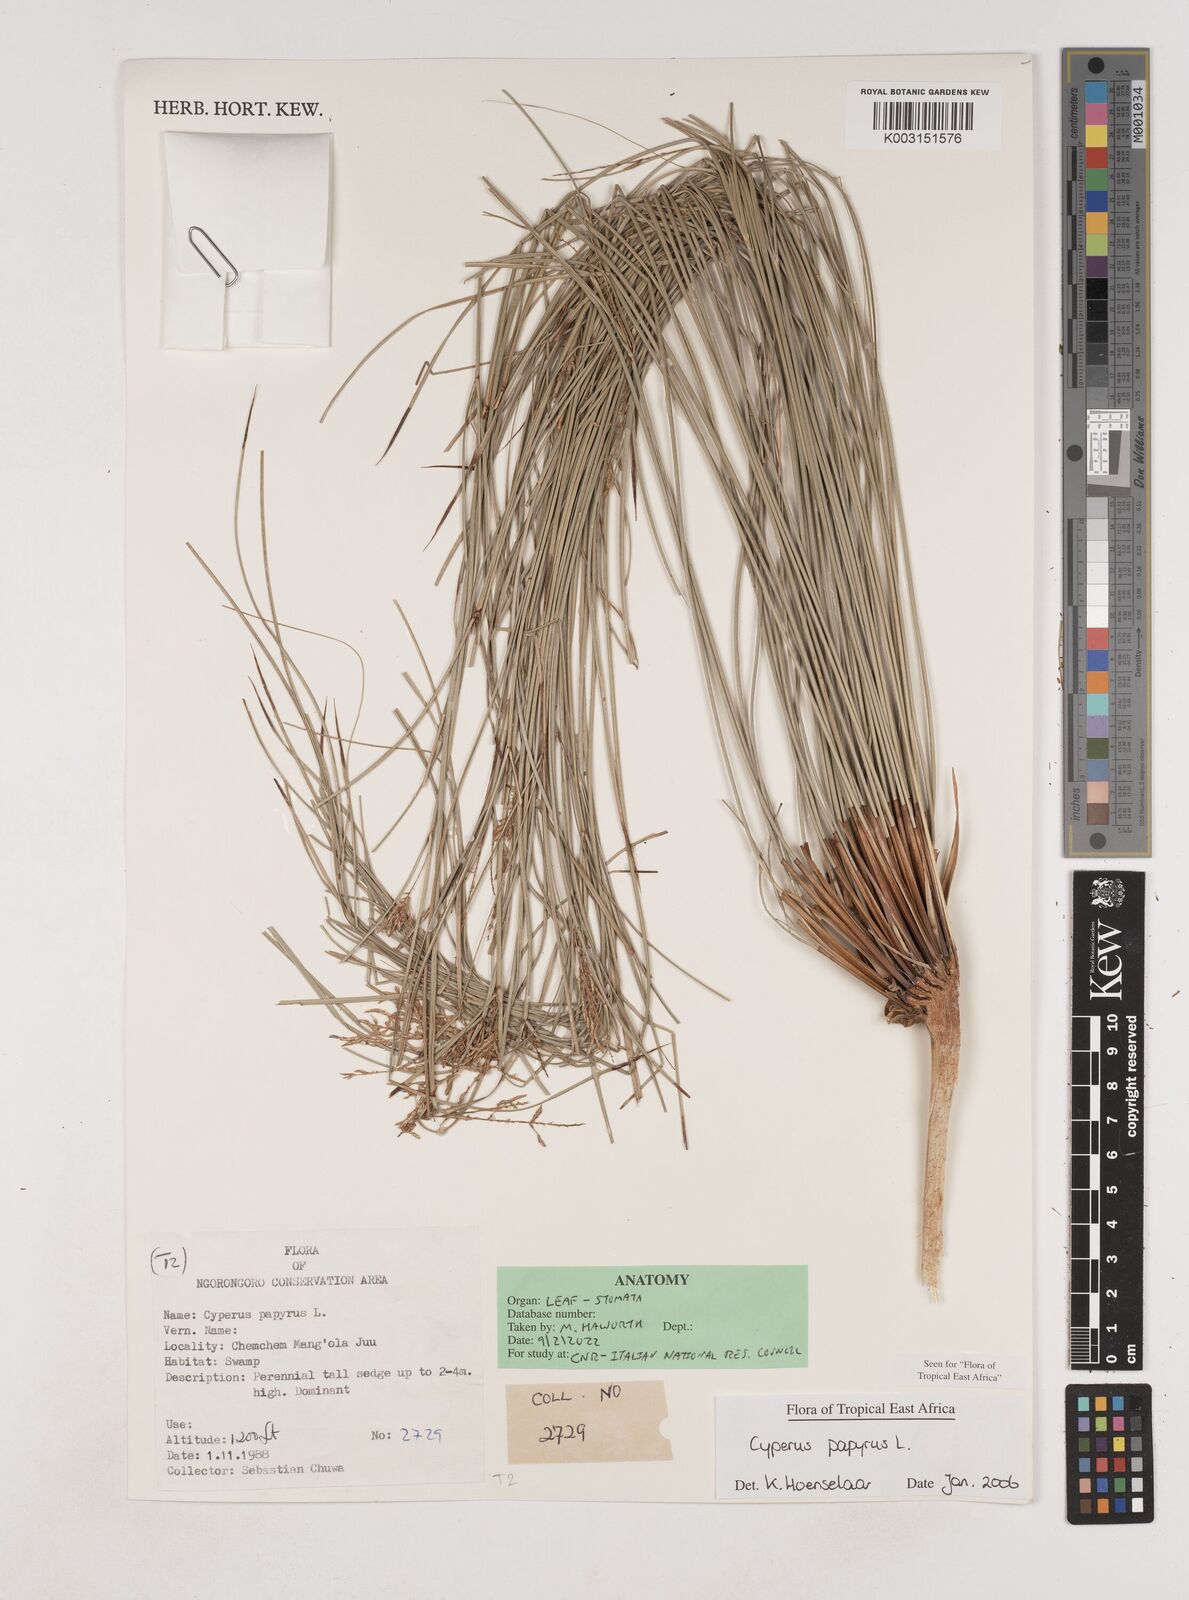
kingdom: Plantae
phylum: Tracheophyta
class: Liliopsida
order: Poales
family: Cyperaceae
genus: Cyperus
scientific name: Cyperus papyrus
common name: Papyrus
